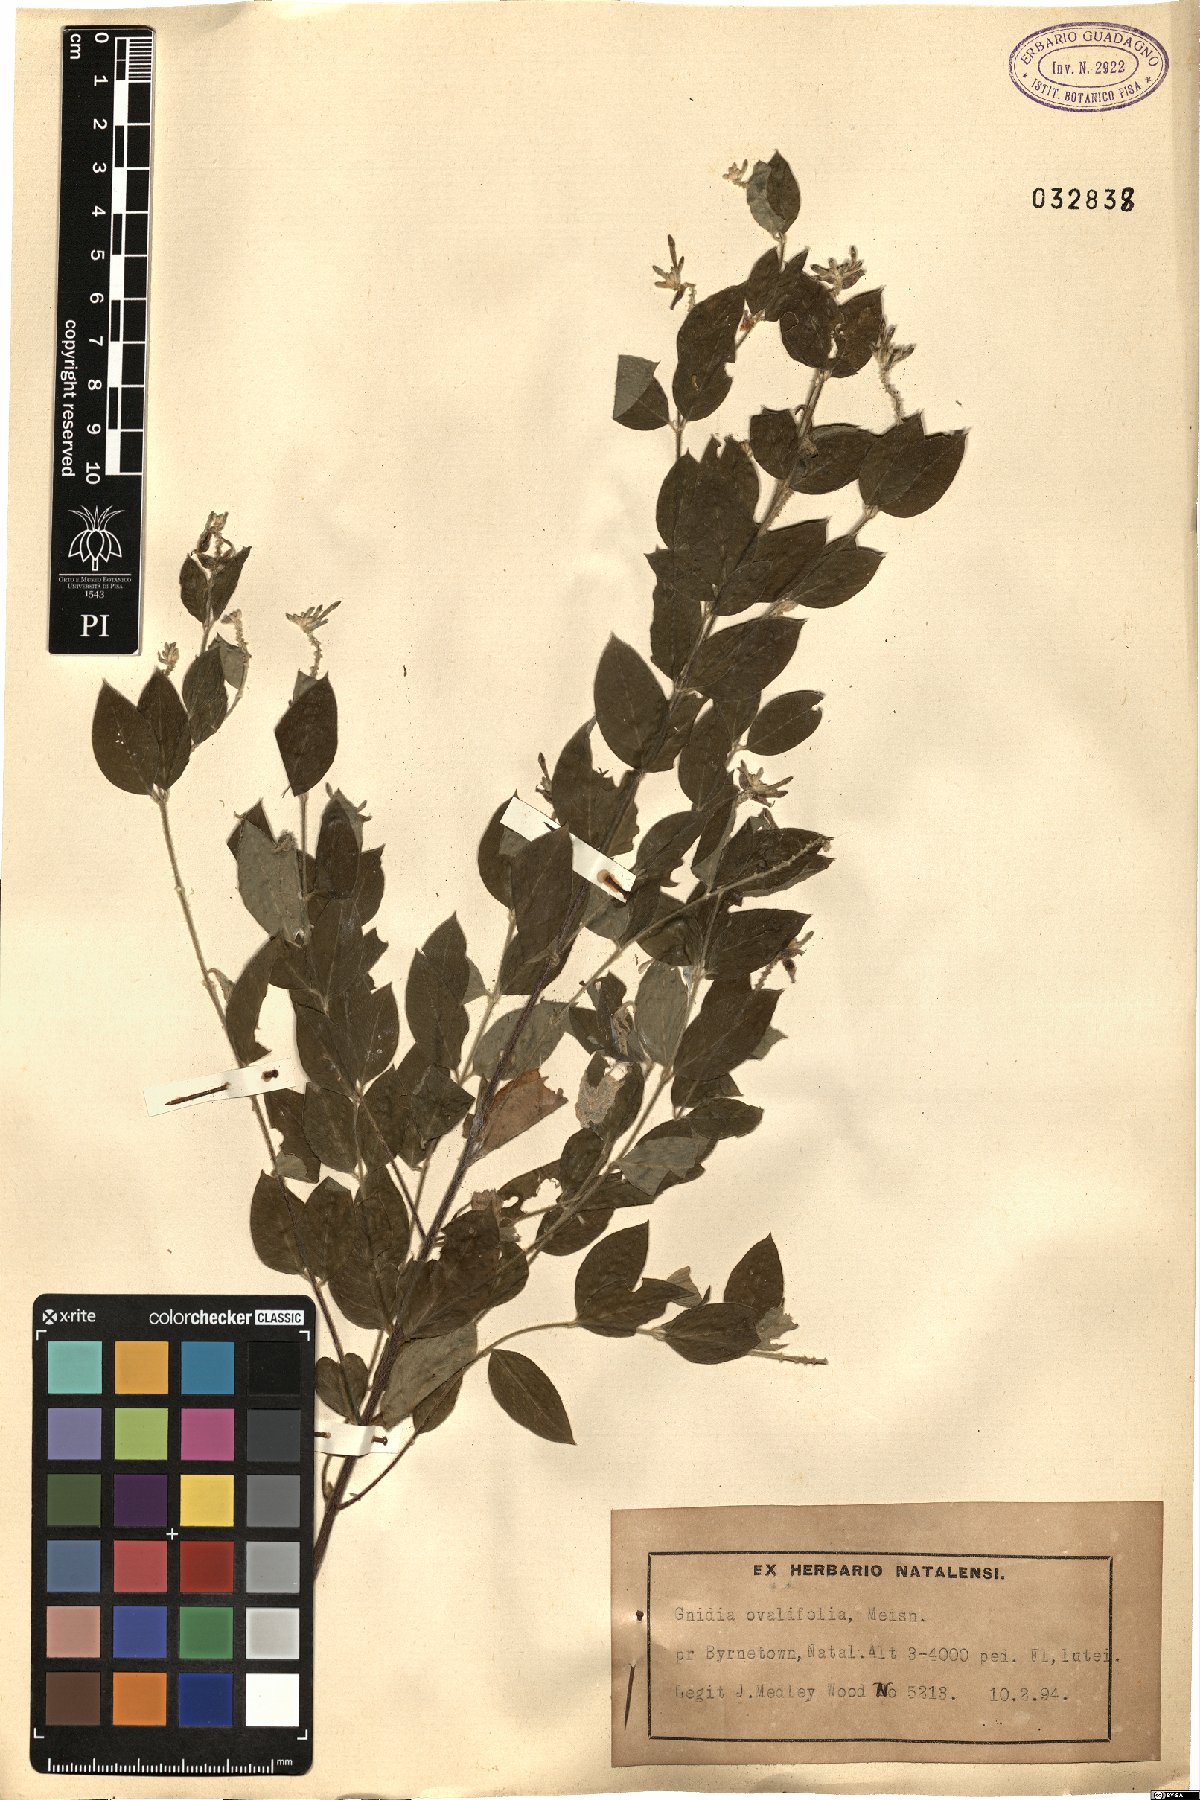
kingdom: Plantae
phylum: Tracheophyta
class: Magnoliopsida
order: Malvales
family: Thymelaeaceae
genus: Englerodaphne
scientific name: Englerodaphne ovalifolia
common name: Broad-leaved fibre-bush
